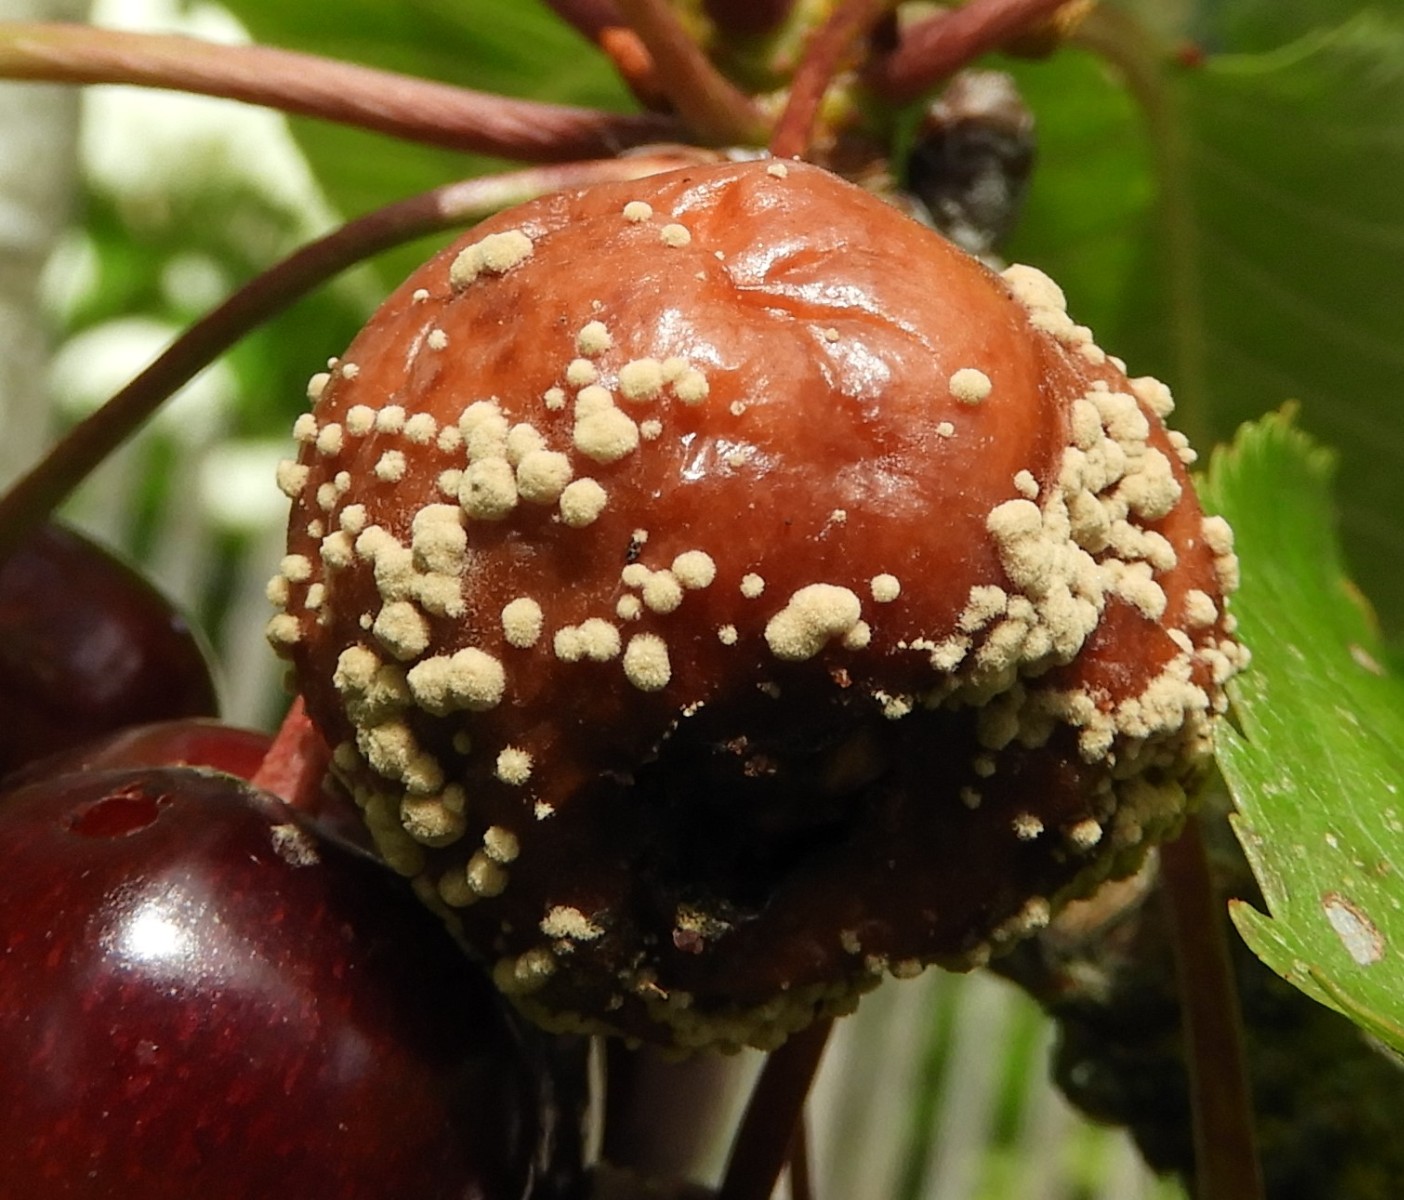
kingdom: Fungi
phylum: Ascomycota
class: Leotiomycetes
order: Helotiales
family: Sclerotiniaceae
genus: Monilinia
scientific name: Monilinia laxa
